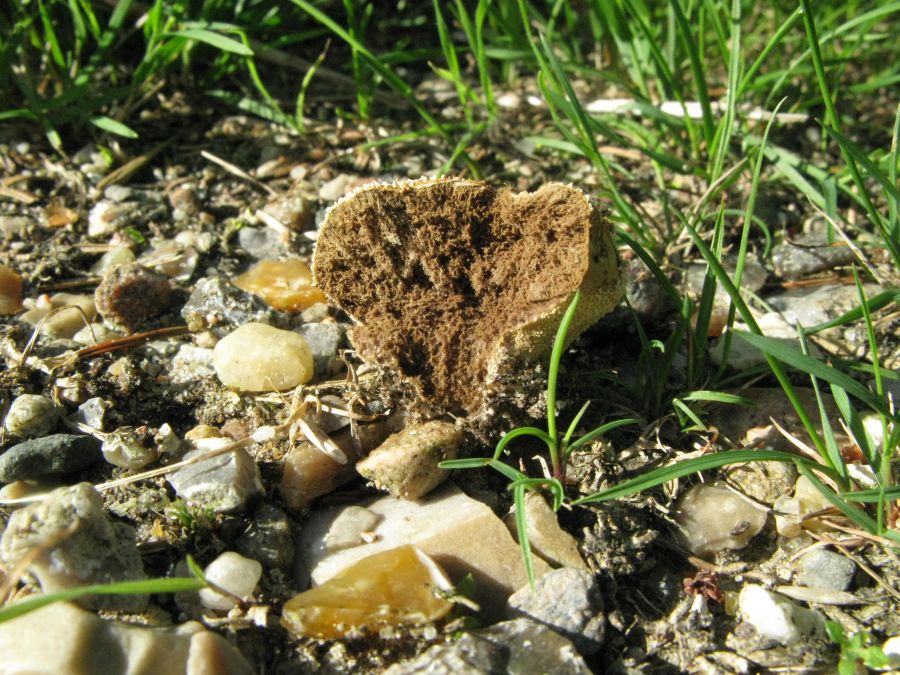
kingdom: Fungi
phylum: Basidiomycota
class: Agaricomycetes
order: Agaricales
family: Lycoperdaceae
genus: Lycoperdon
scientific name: Lycoperdon pratense
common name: flad støvbold
